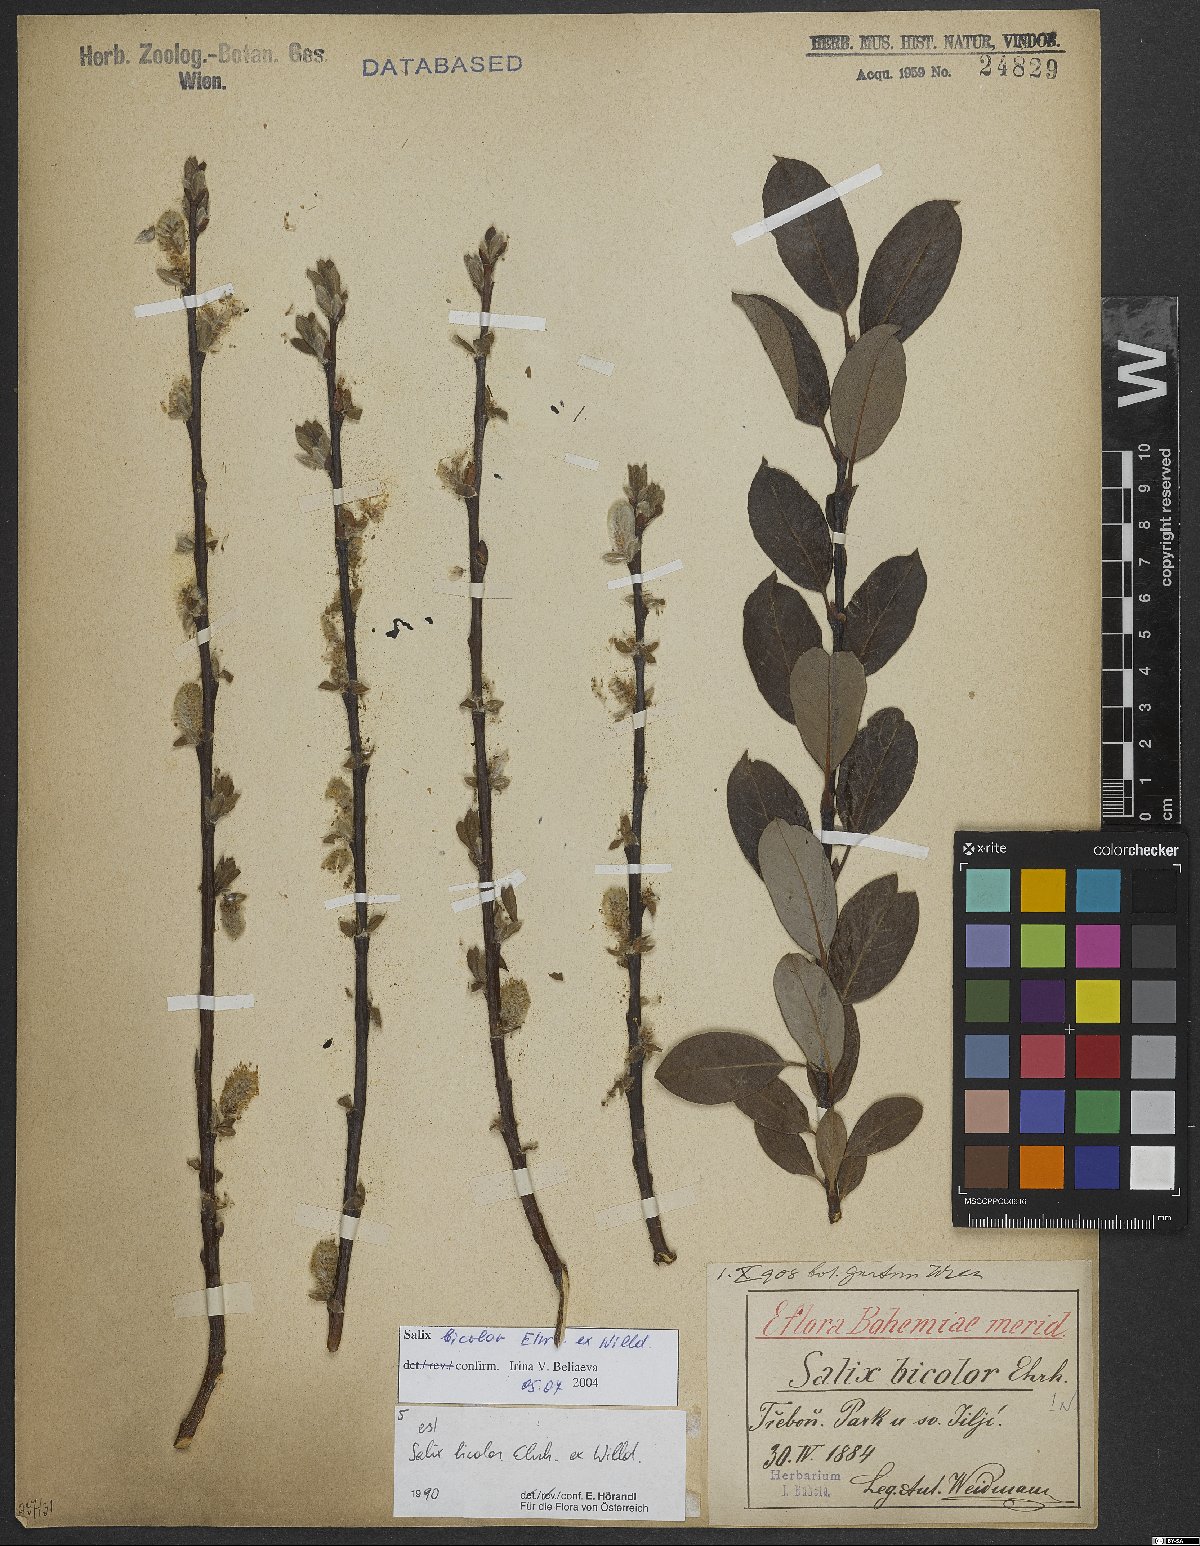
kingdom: Plantae
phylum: Tracheophyta
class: Magnoliopsida
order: Malpighiales
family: Salicaceae
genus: Salix
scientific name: Salix bicolor
